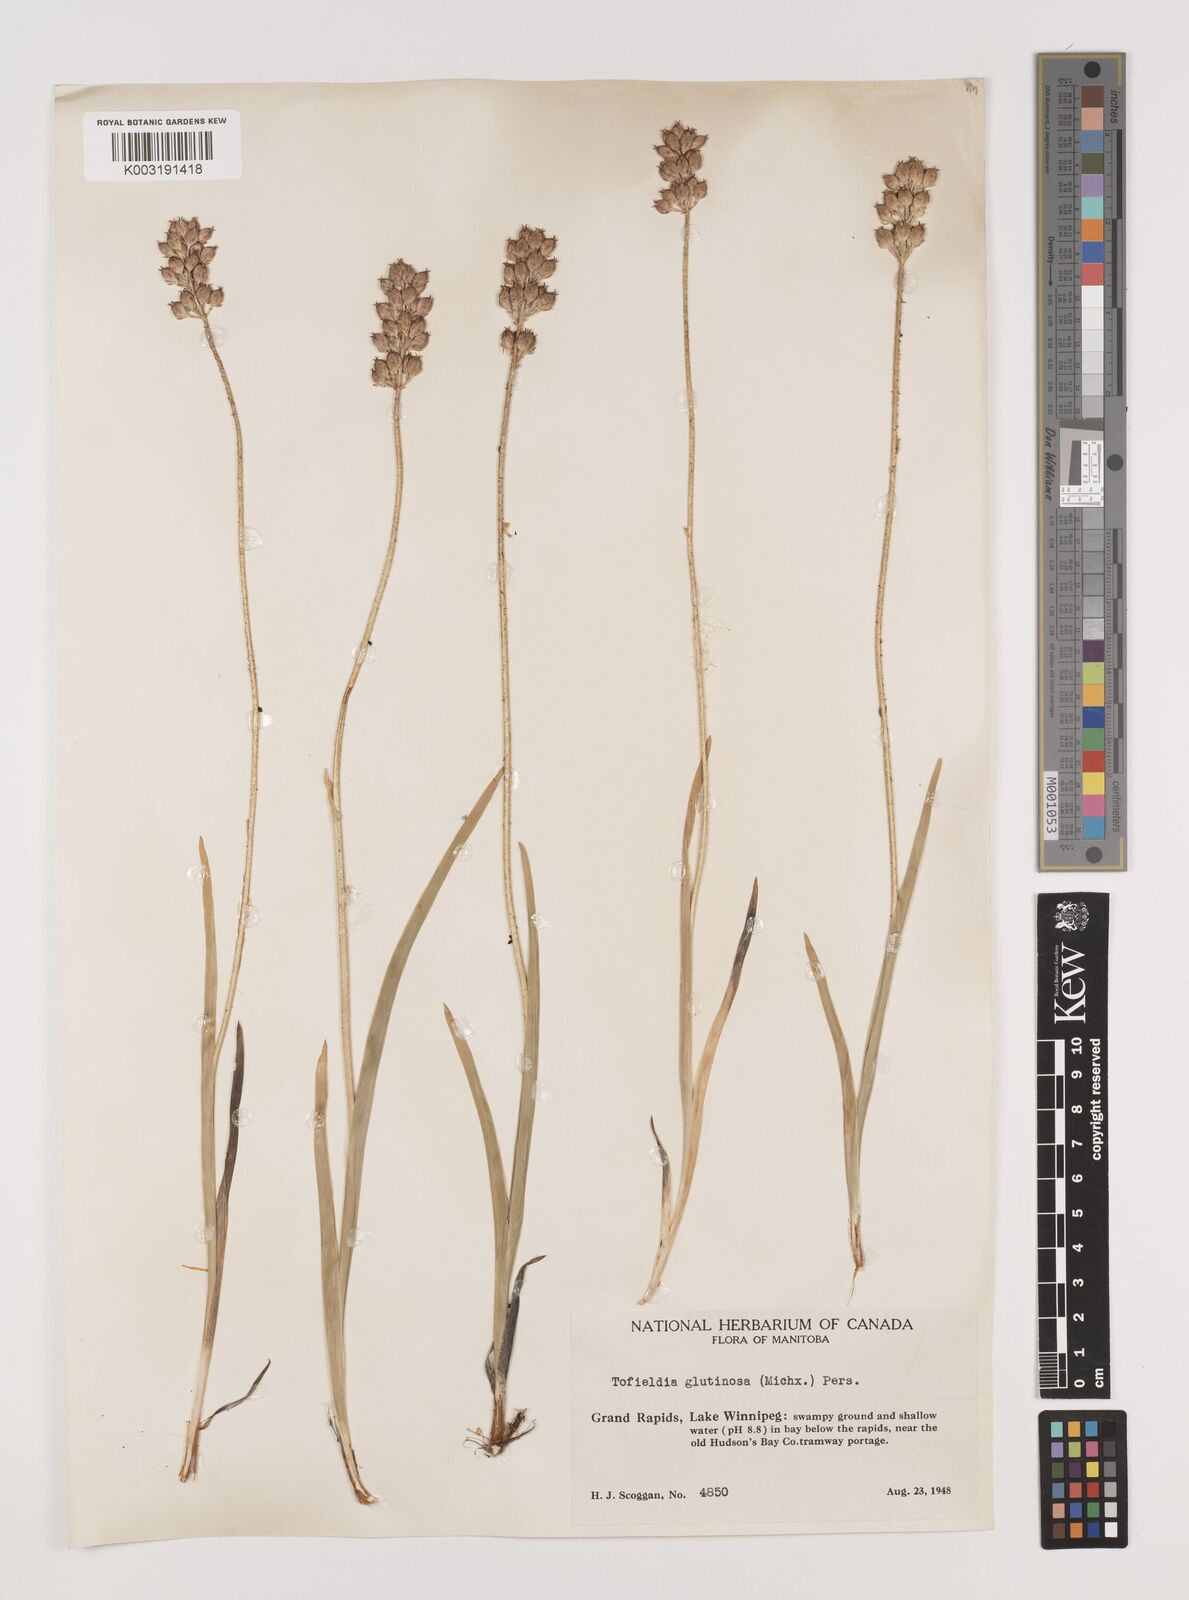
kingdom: Plantae
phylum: Tracheophyta
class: Liliopsida
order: Alismatales
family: Tofieldiaceae
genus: Triantha
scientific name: Triantha glutinosa
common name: Glutinous tofieldia
